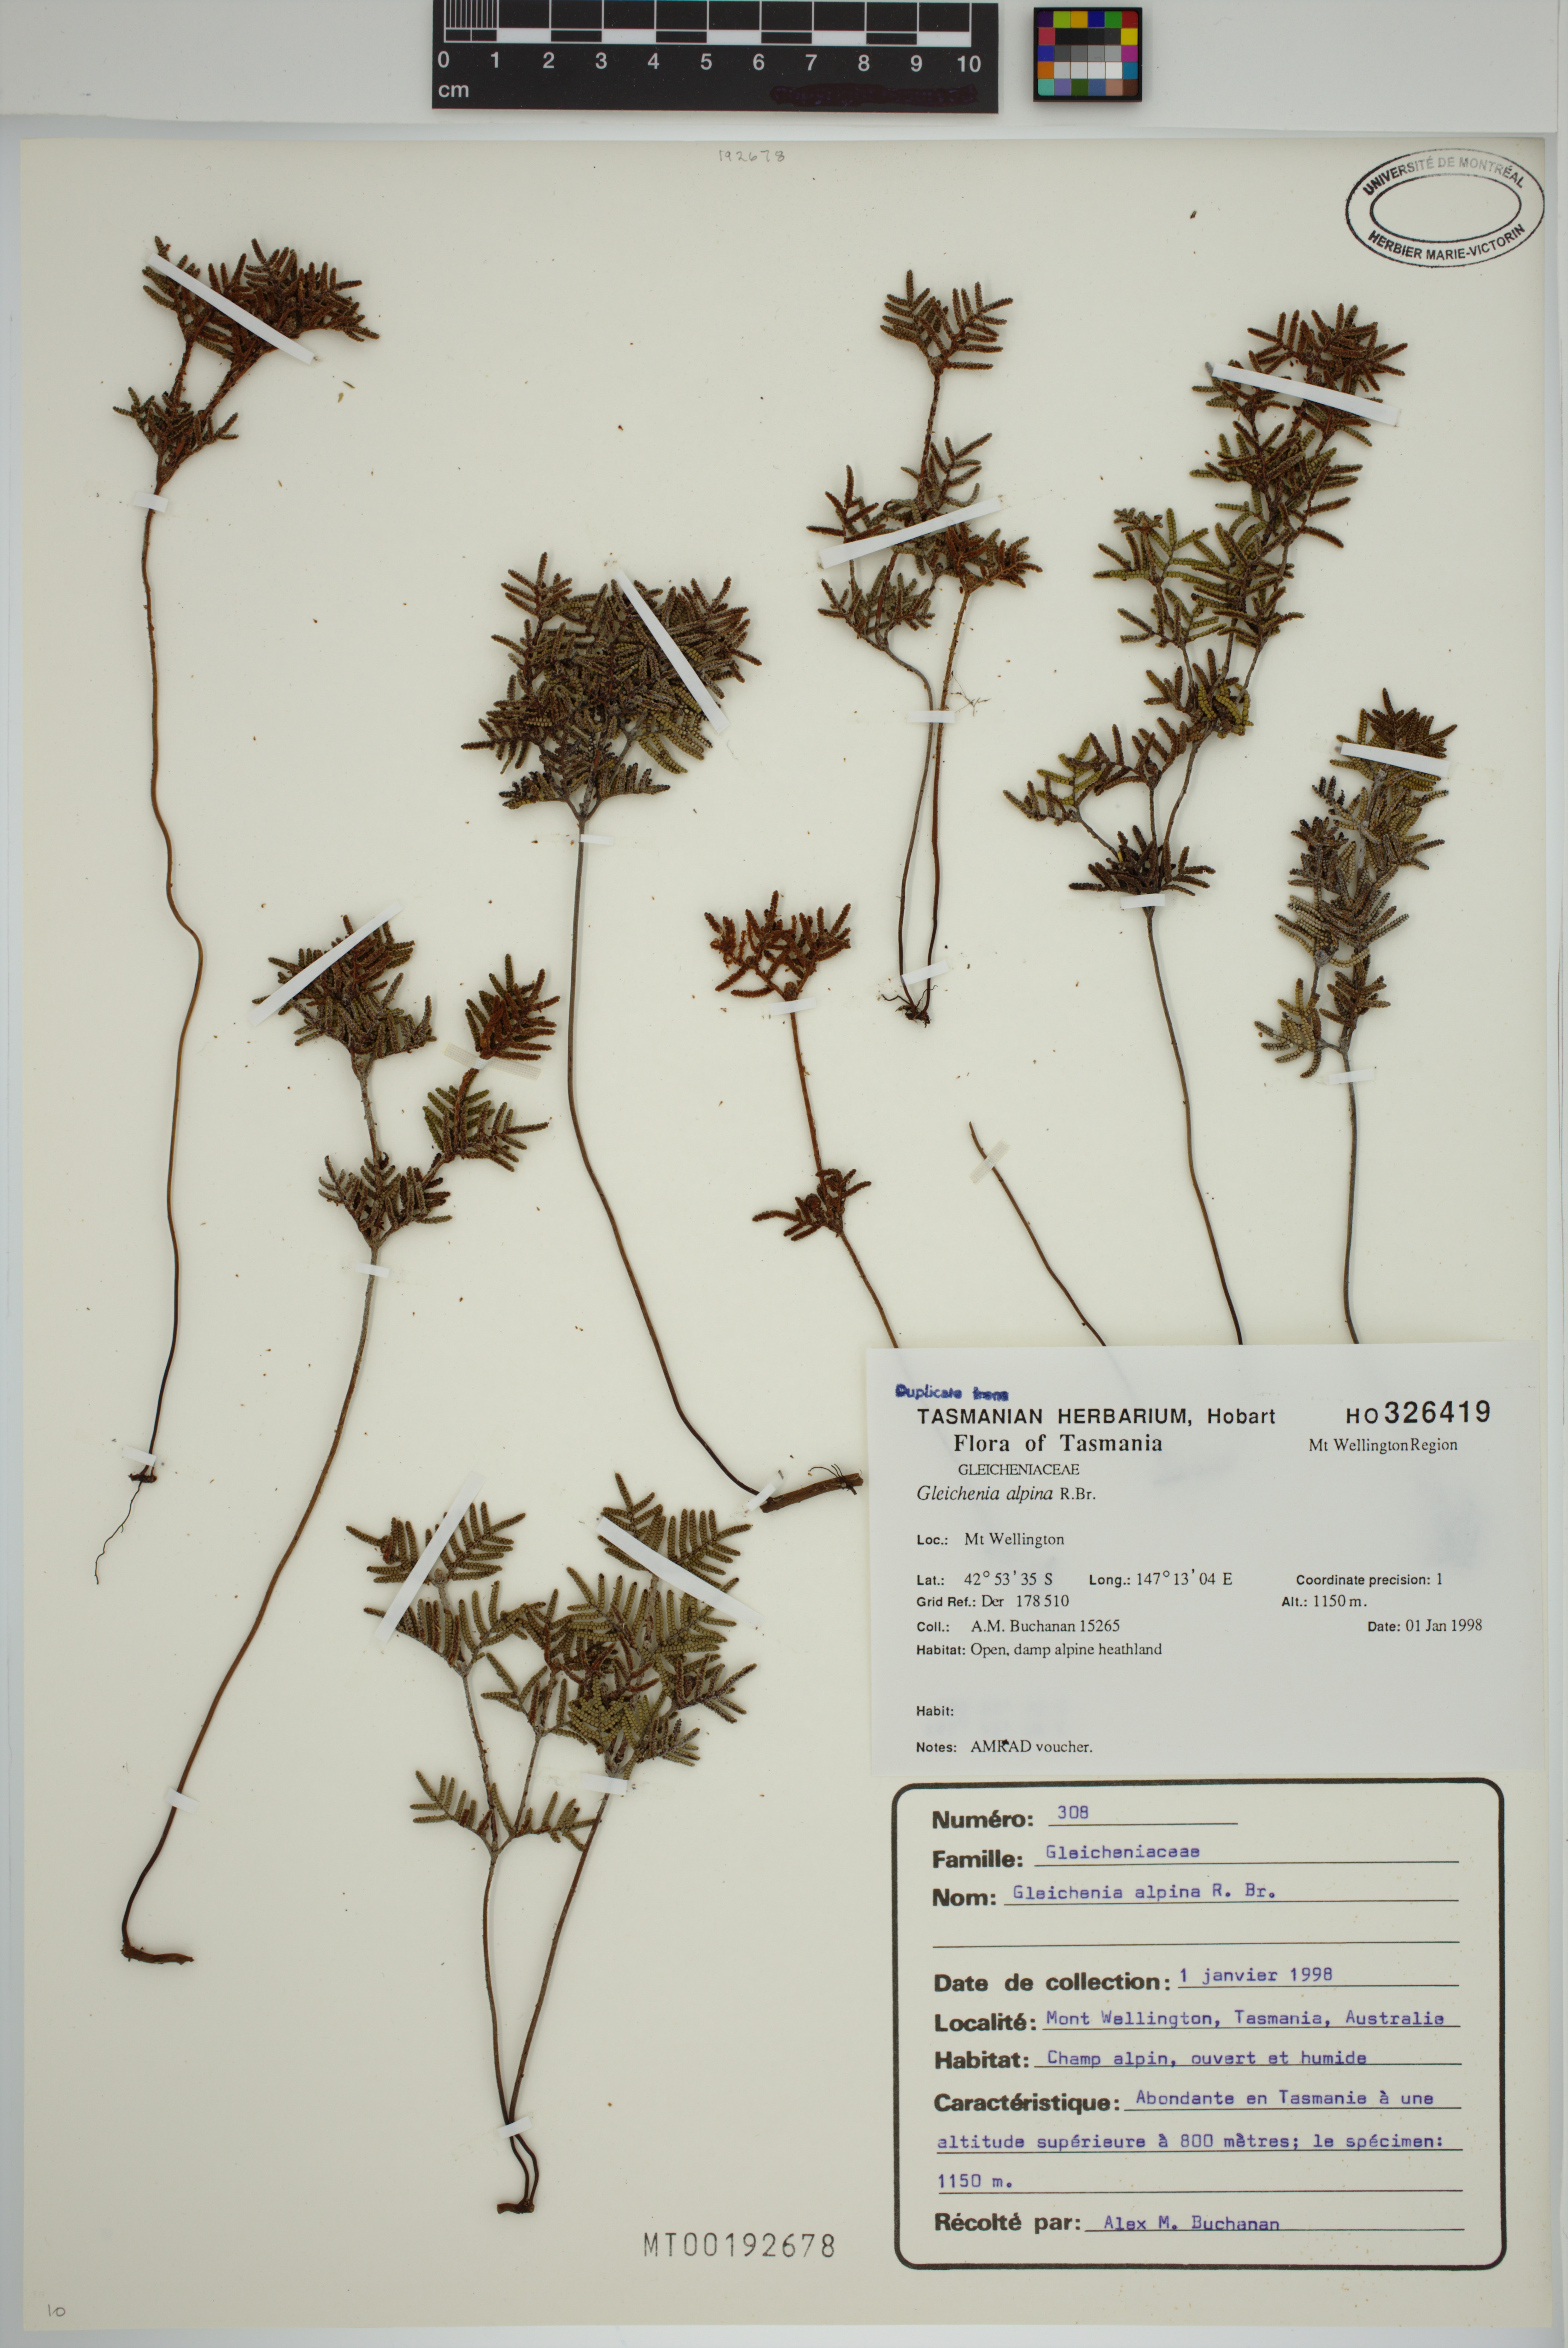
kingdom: Plantae
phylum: Tracheophyta
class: Polypodiopsida
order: Gleicheniales
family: Gleicheniaceae
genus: Gleichenia
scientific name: Gleichenia alpina
